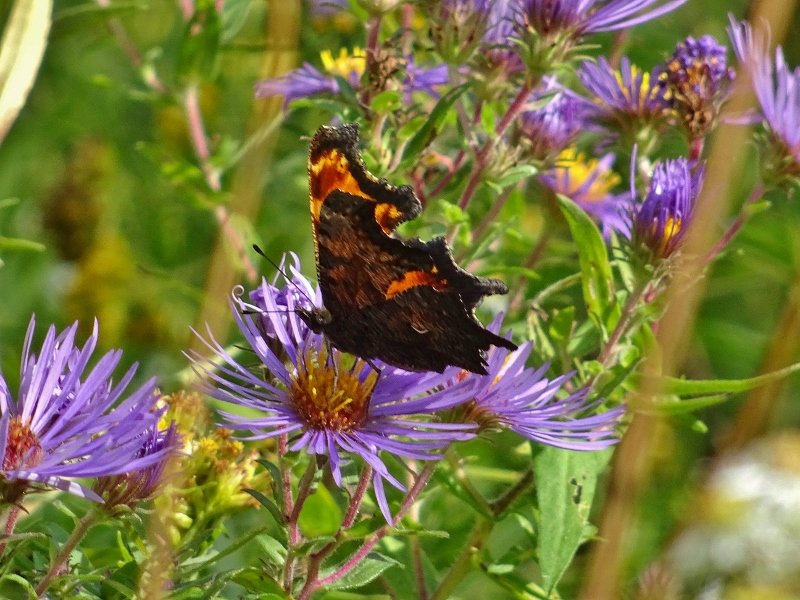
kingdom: Animalia
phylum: Arthropoda
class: Insecta
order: Lepidoptera
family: Nymphalidae
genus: Polygonia
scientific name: Polygonia progne
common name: Gray Comma
